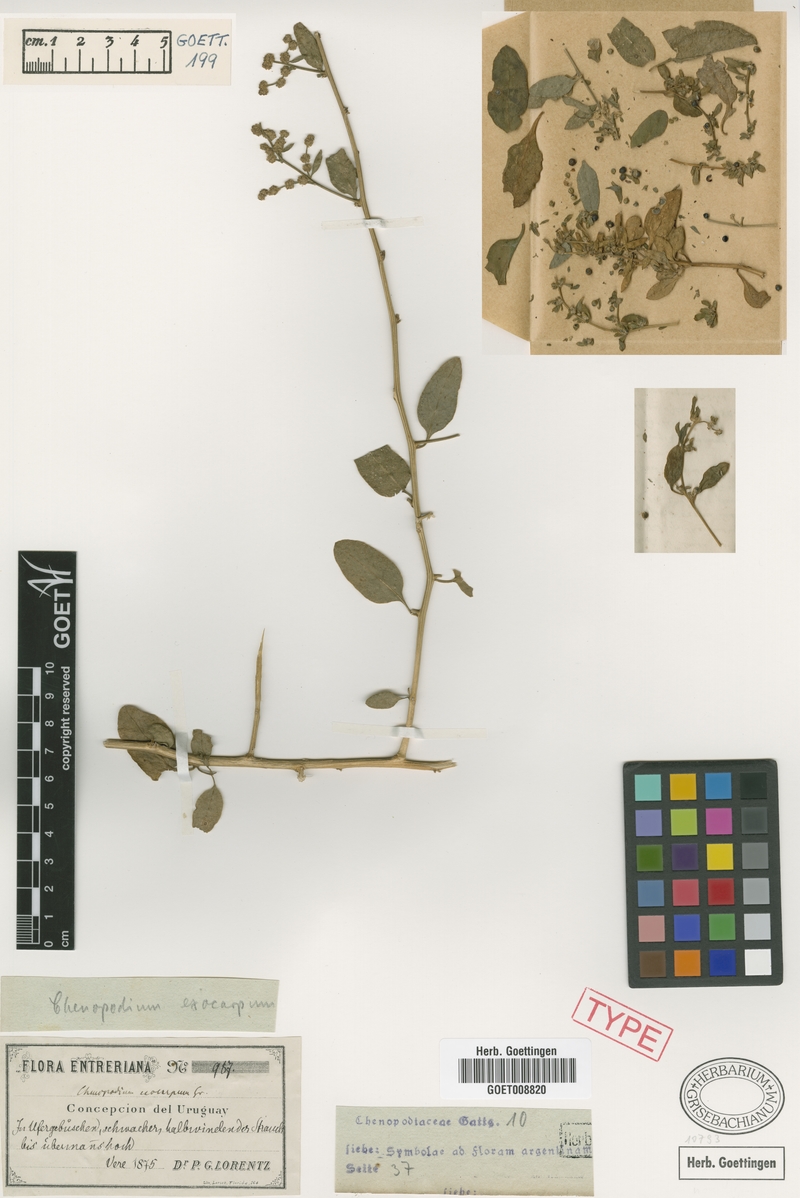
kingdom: Plantae
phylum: Tracheophyta
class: Magnoliopsida
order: Caryophyllales
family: Amaranthaceae
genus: Holmbergia
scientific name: Holmbergia tweedii
